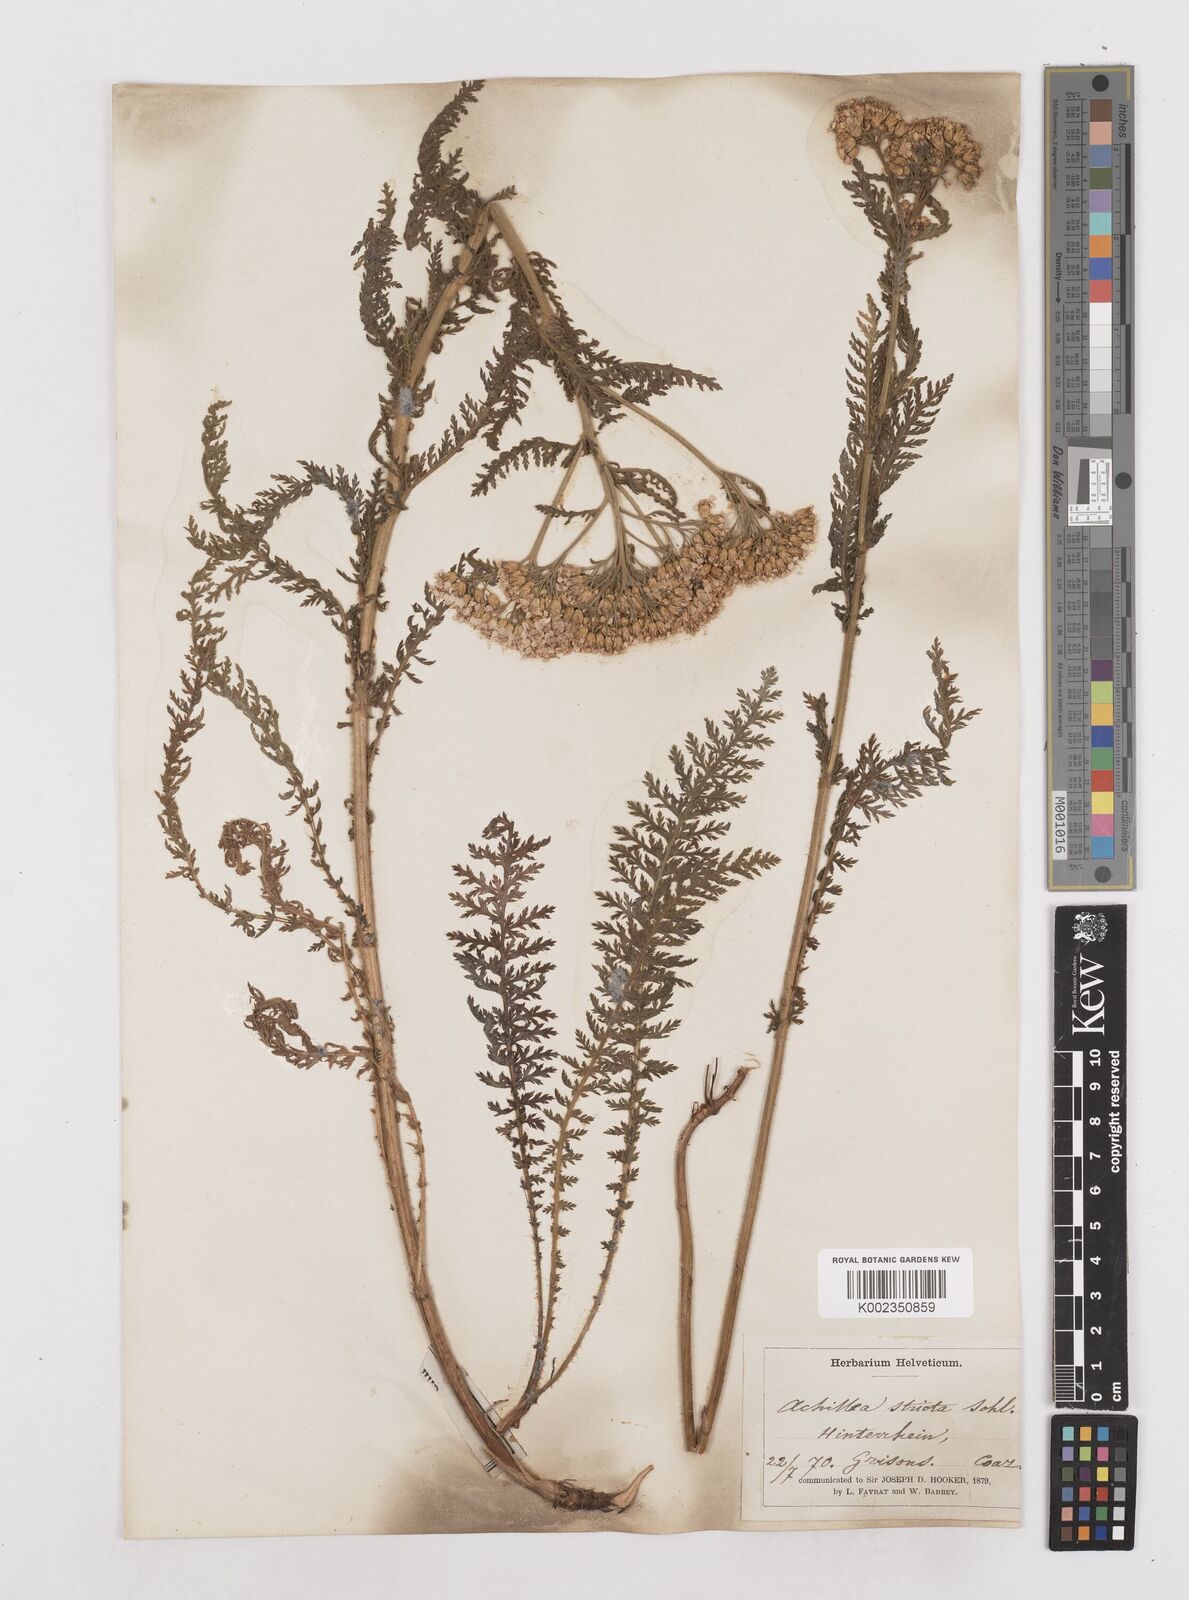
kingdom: Plantae
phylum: Tracheophyta
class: Magnoliopsida
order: Asterales
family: Asteraceae
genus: Achillea
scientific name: Achillea distans
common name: Tall yarrow
